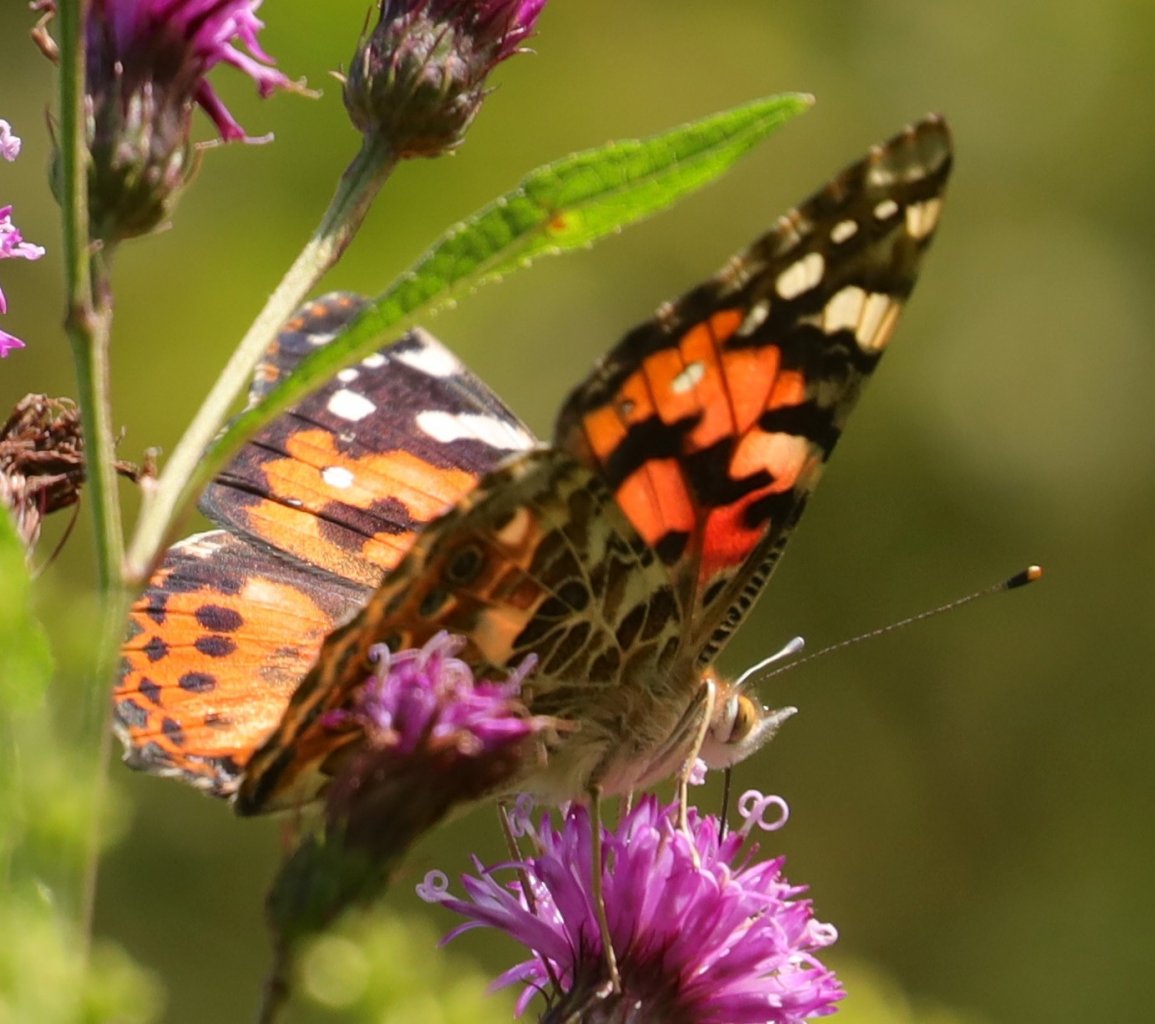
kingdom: Animalia
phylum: Arthropoda
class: Insecta
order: Lepidoptera
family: Nymphalidae
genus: Vanessa
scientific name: Vanessa cardui
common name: Painted Lady
